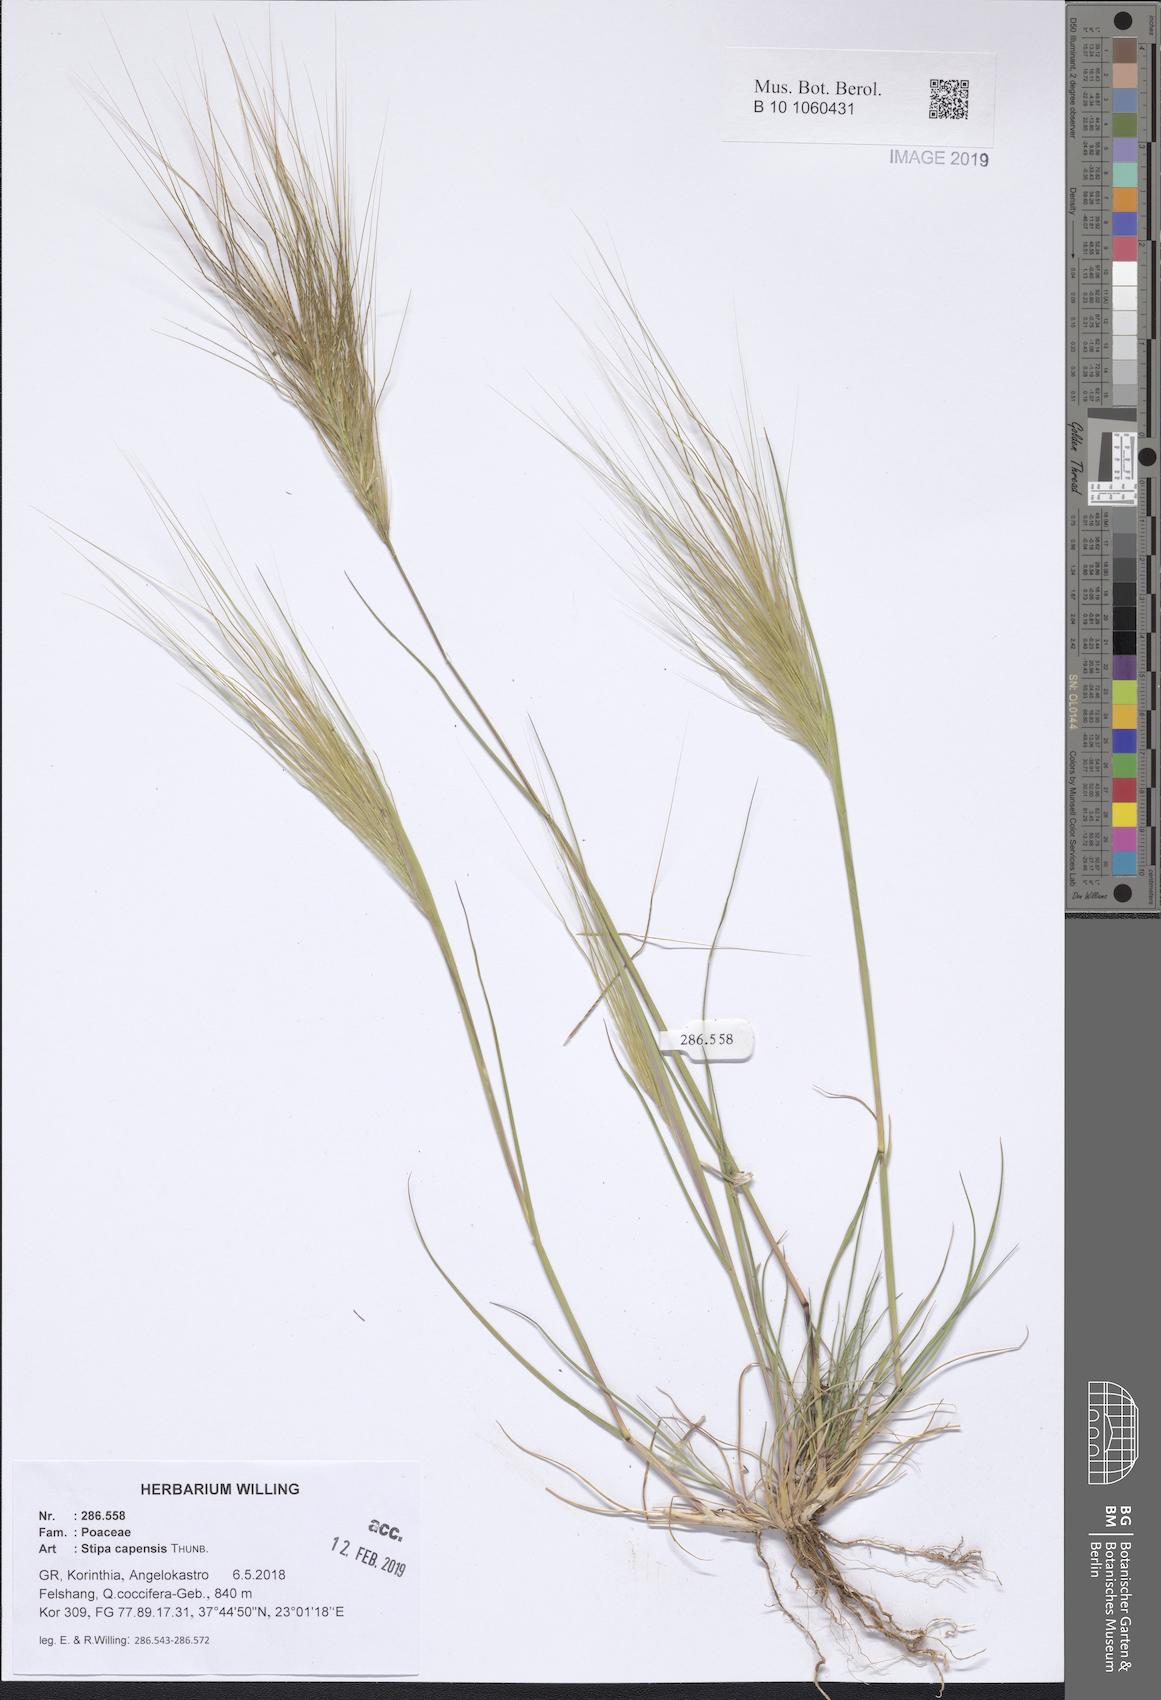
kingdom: Plantae
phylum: Tracheophyta
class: Liliopsida
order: Poales
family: Poaceae
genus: Stipellula
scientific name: Stipellula capensis
